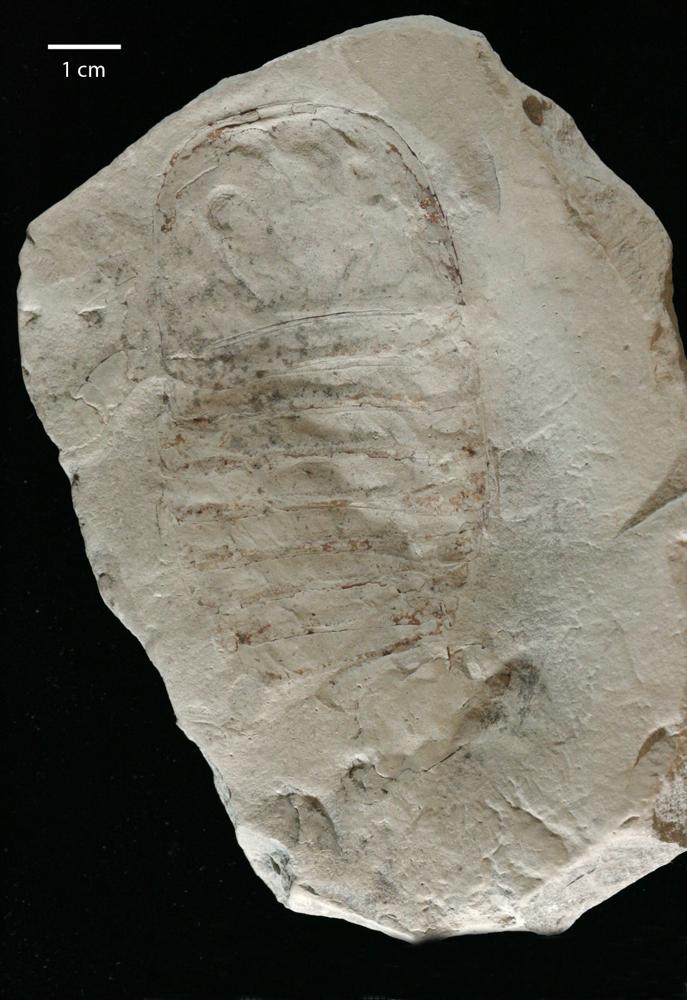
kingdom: Animalia
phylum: Arthropoda
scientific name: Arthropoda
